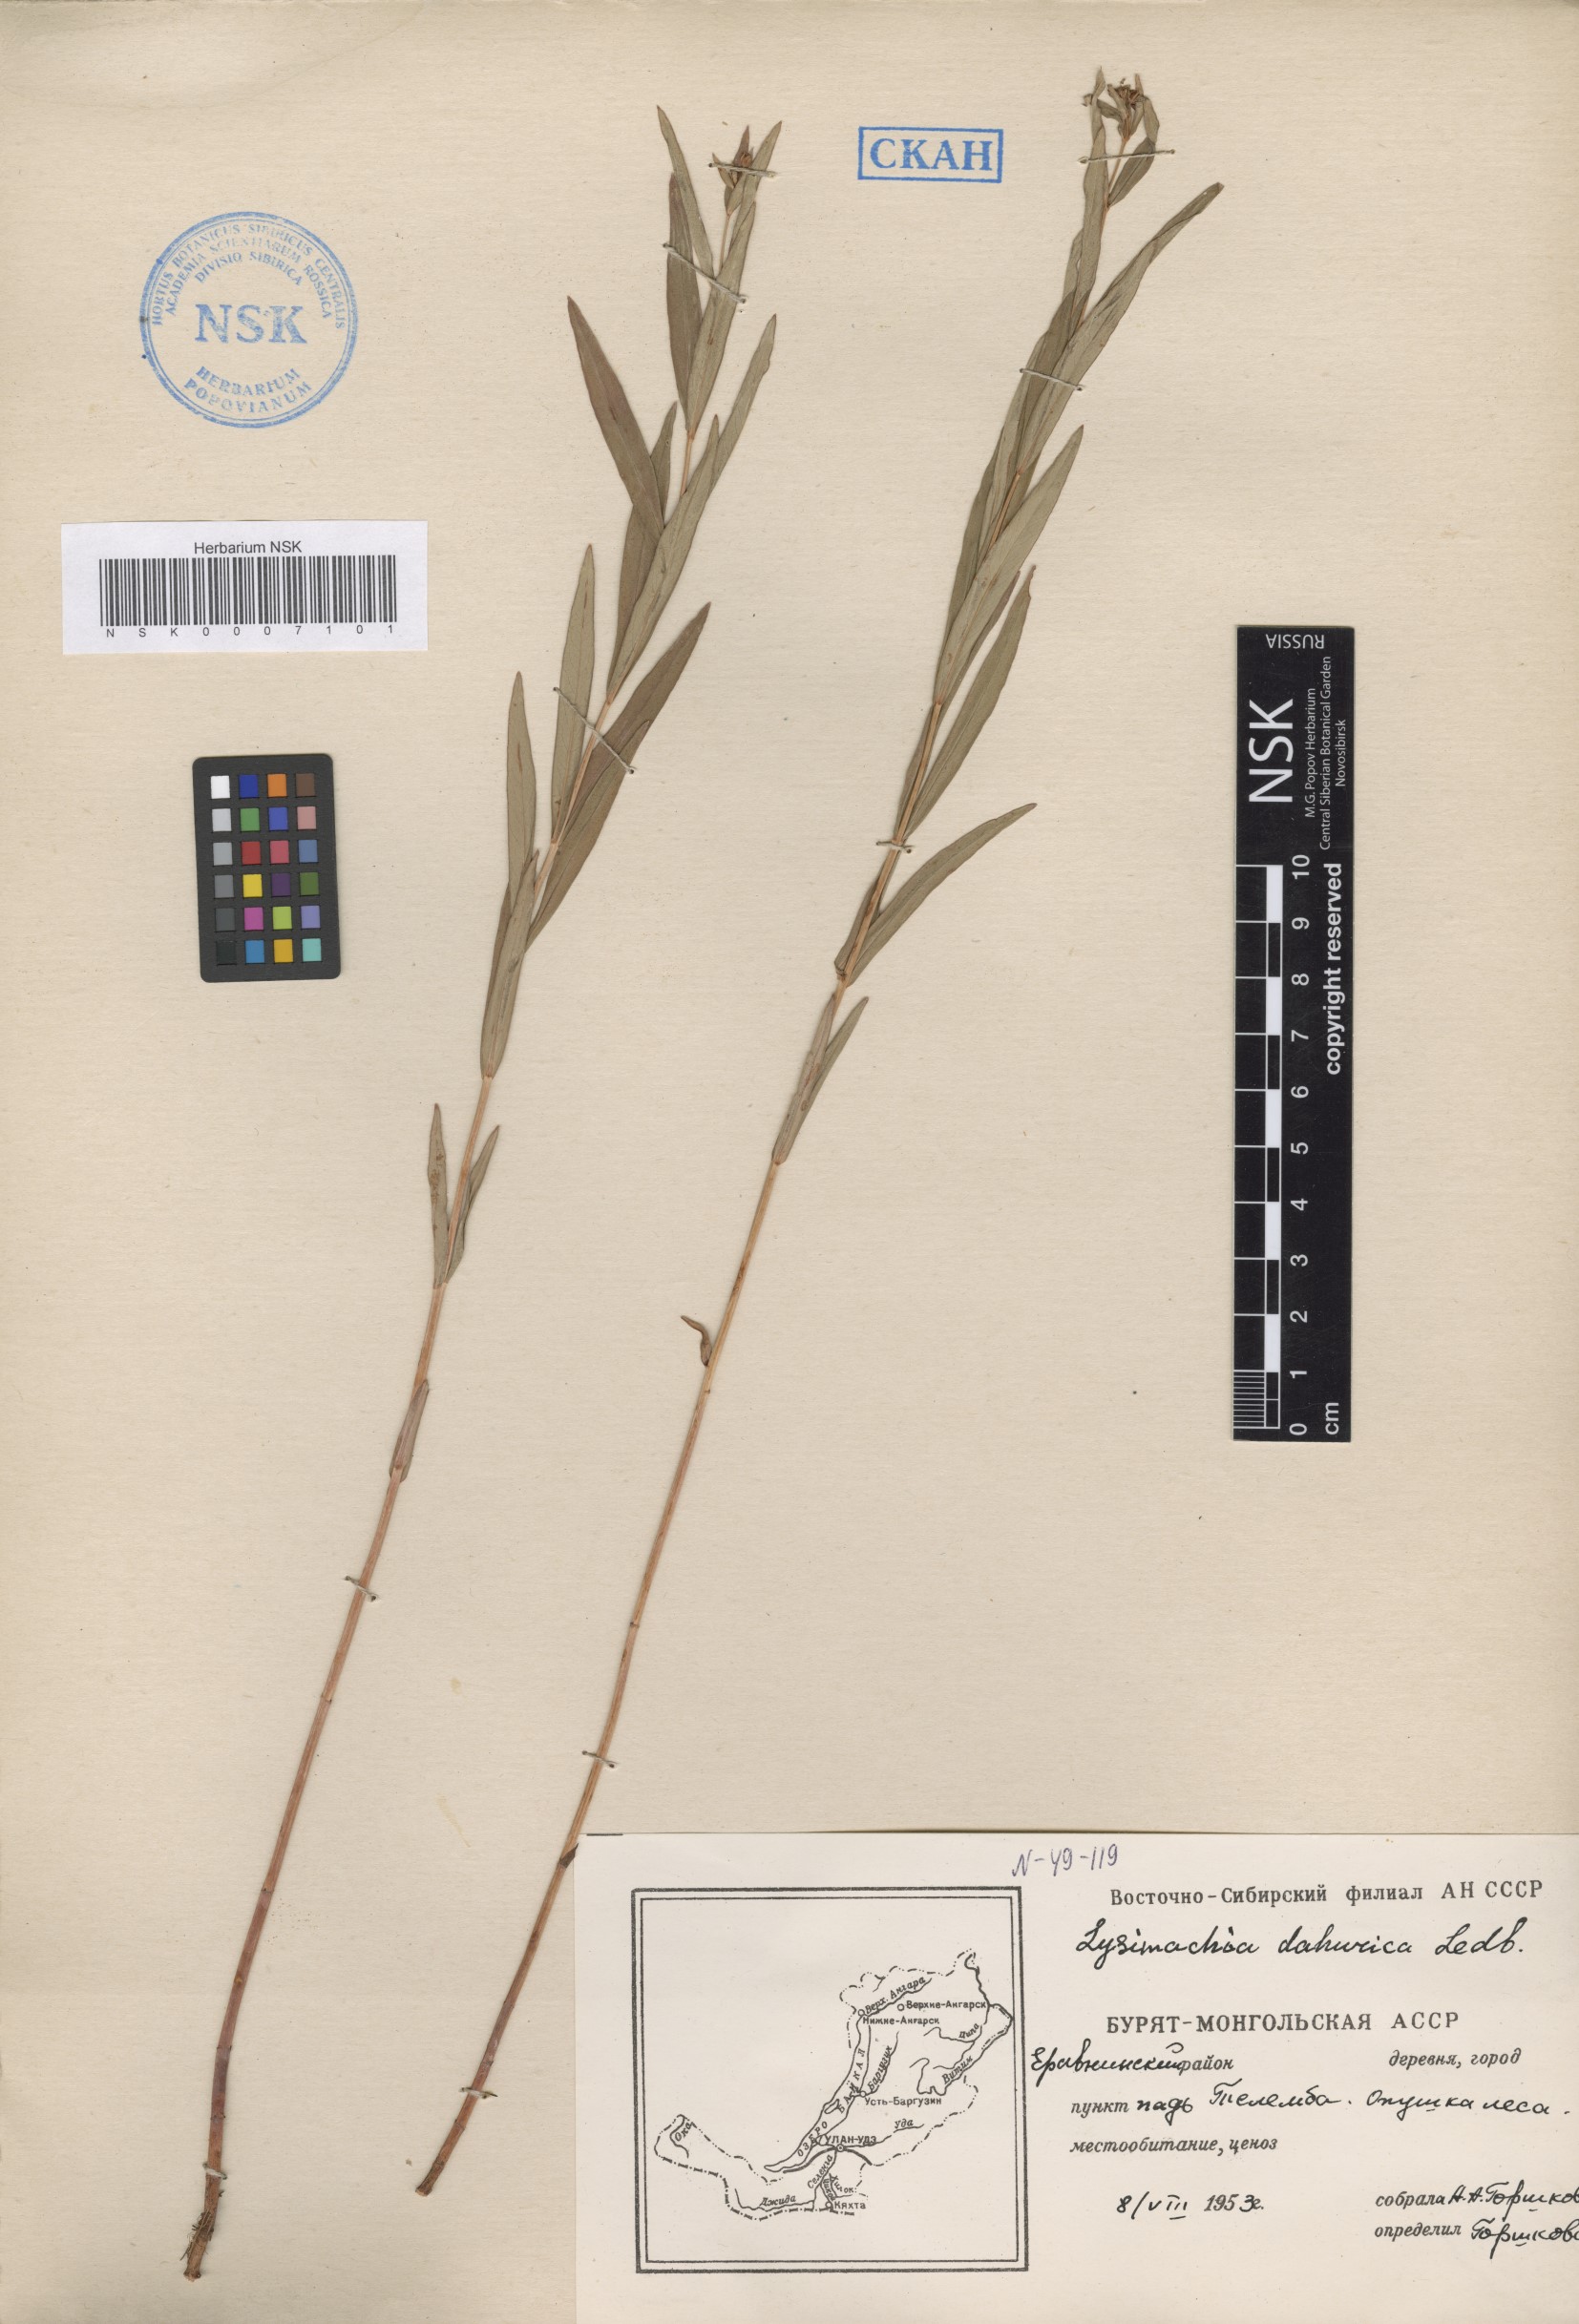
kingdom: Plantae
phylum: Tracheophyta
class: Magnoliopsida
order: Ericales
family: Primulaceae
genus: Lysimachia
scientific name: Lysimachia davurica
